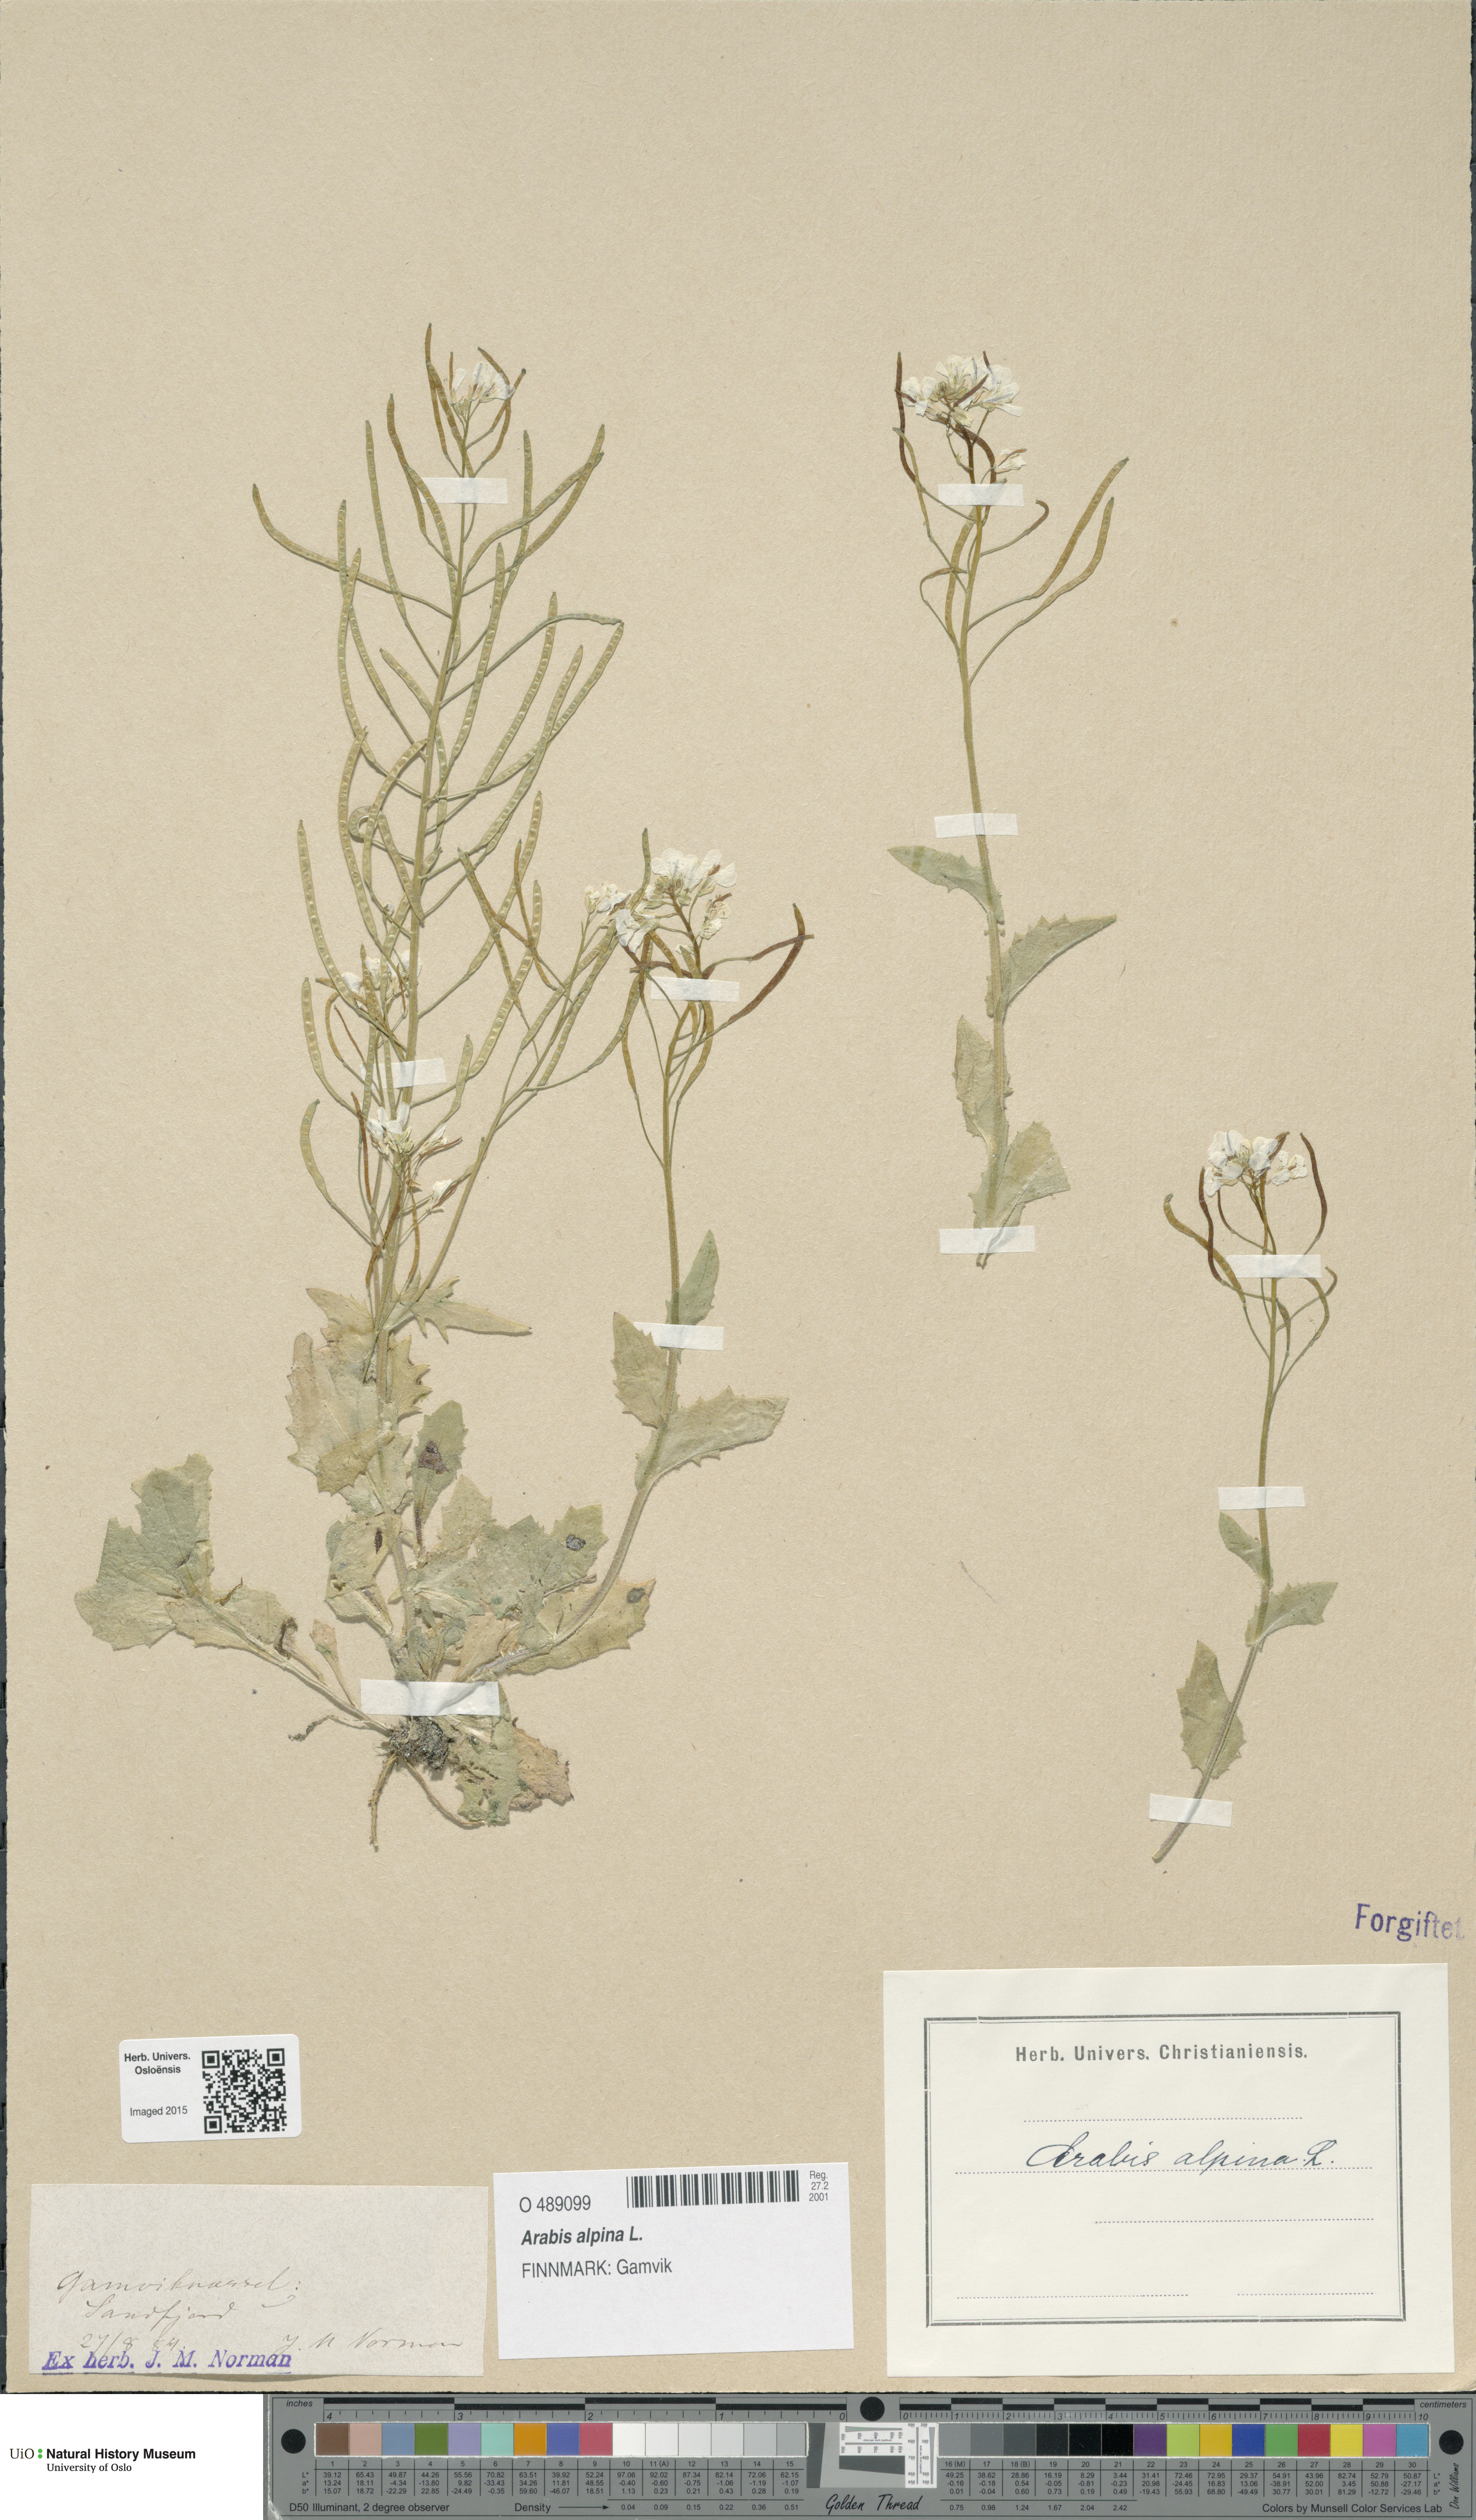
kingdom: Plantae
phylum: Tracheophyta
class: Magnoliopsida
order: Brassicales
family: Brassicaceae
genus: Arabis
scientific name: Arabis alpina
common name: Alpine rock-cress
